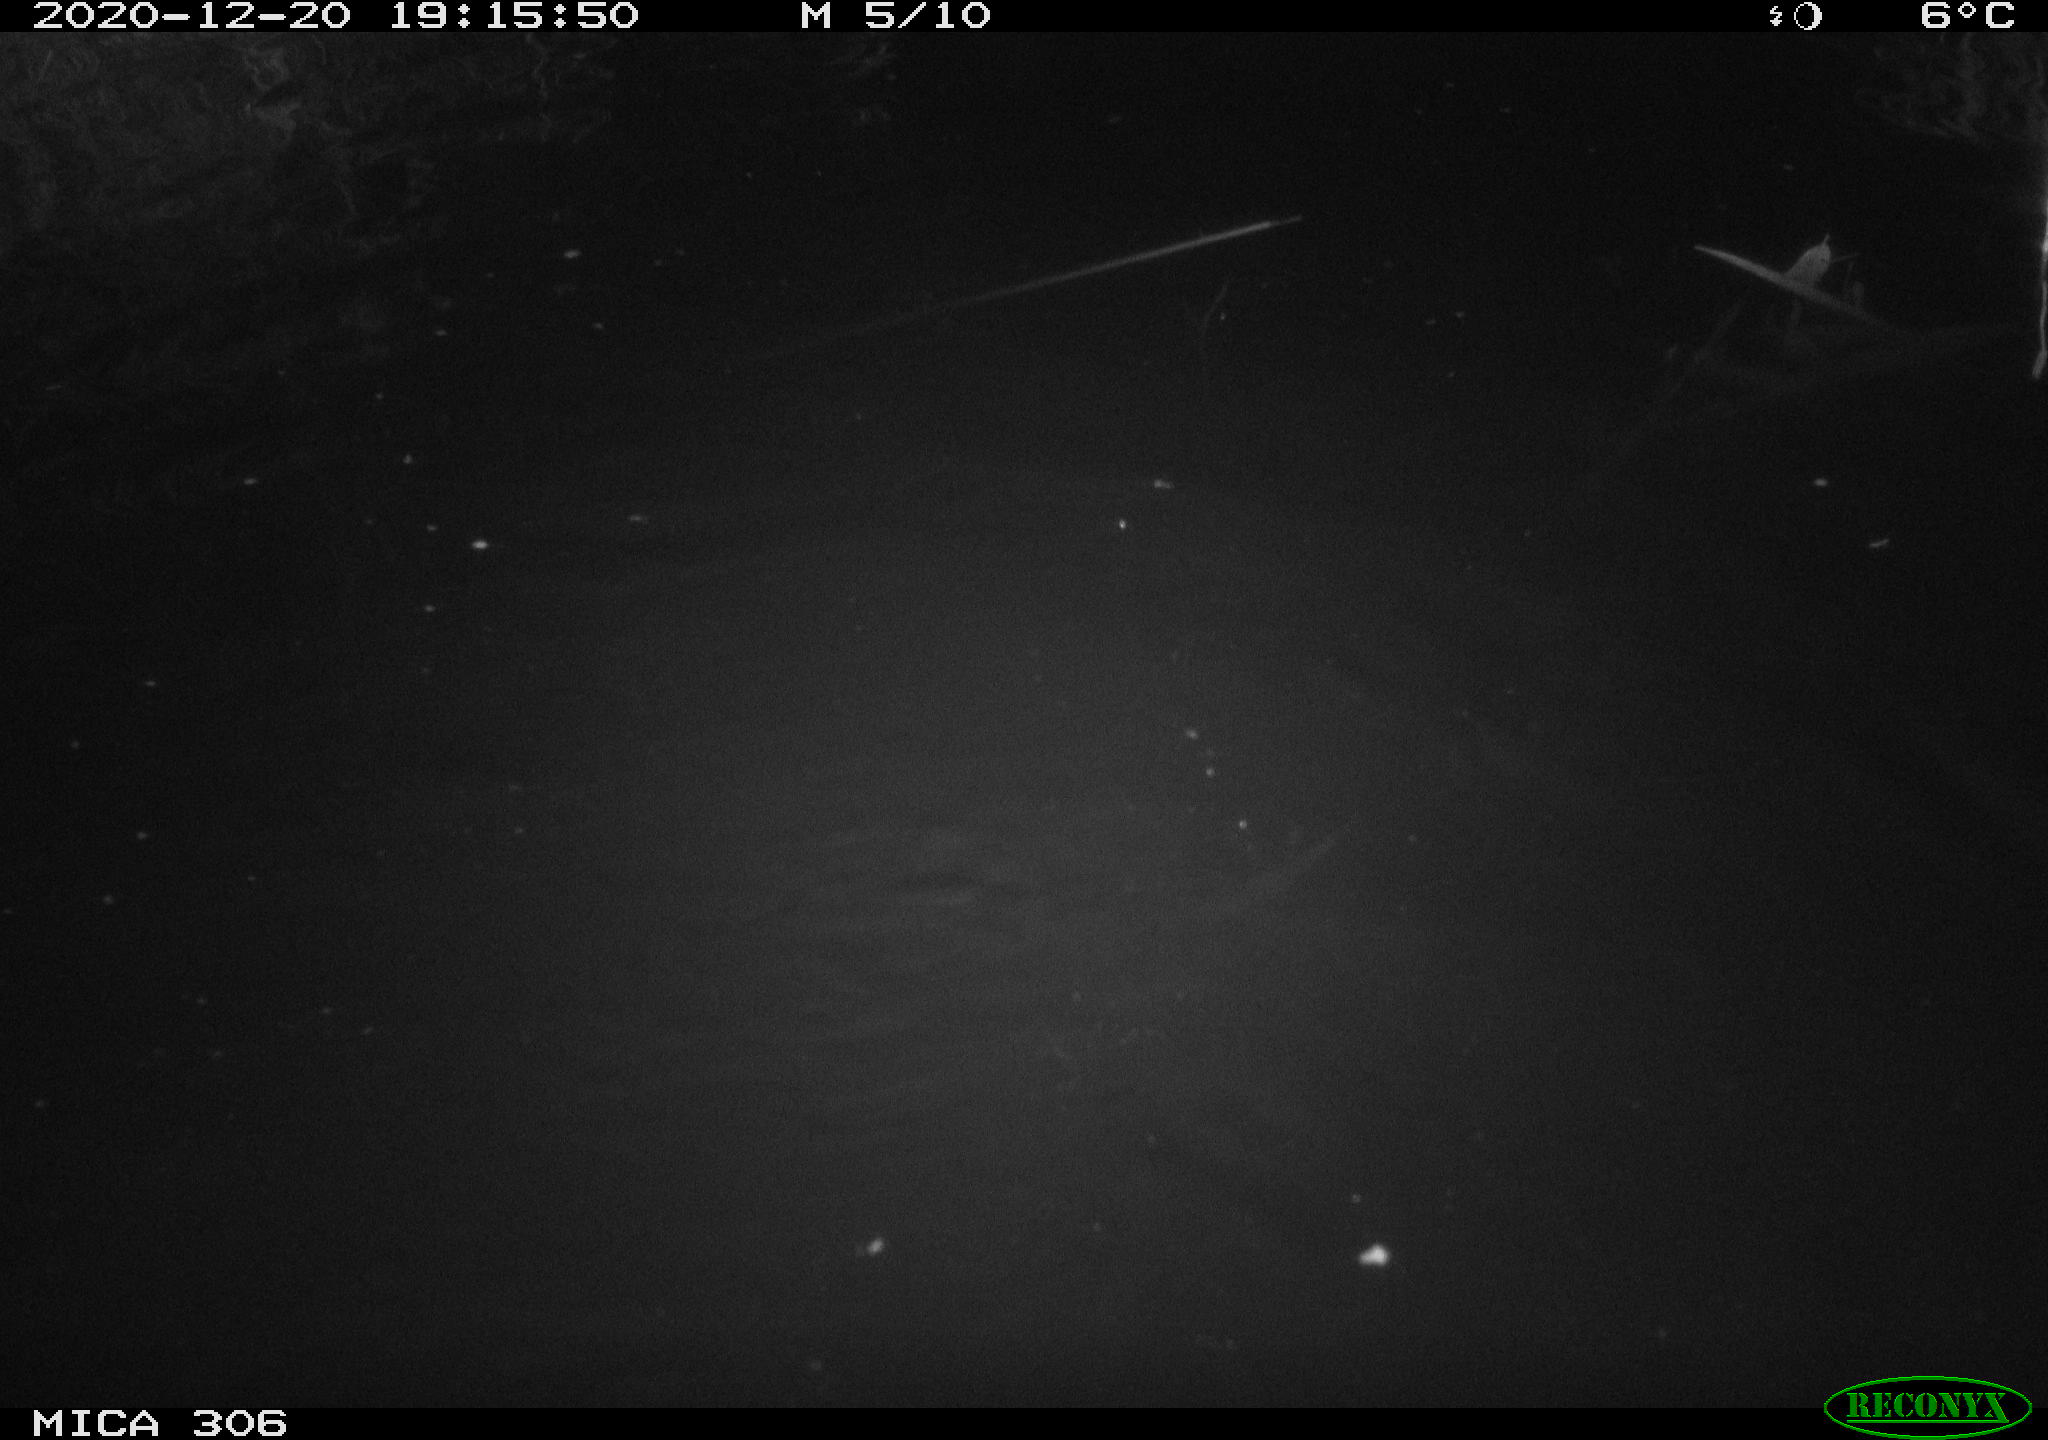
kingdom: Animalia
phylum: Chordata
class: Mammalia
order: Rodentia
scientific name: Rodentia
